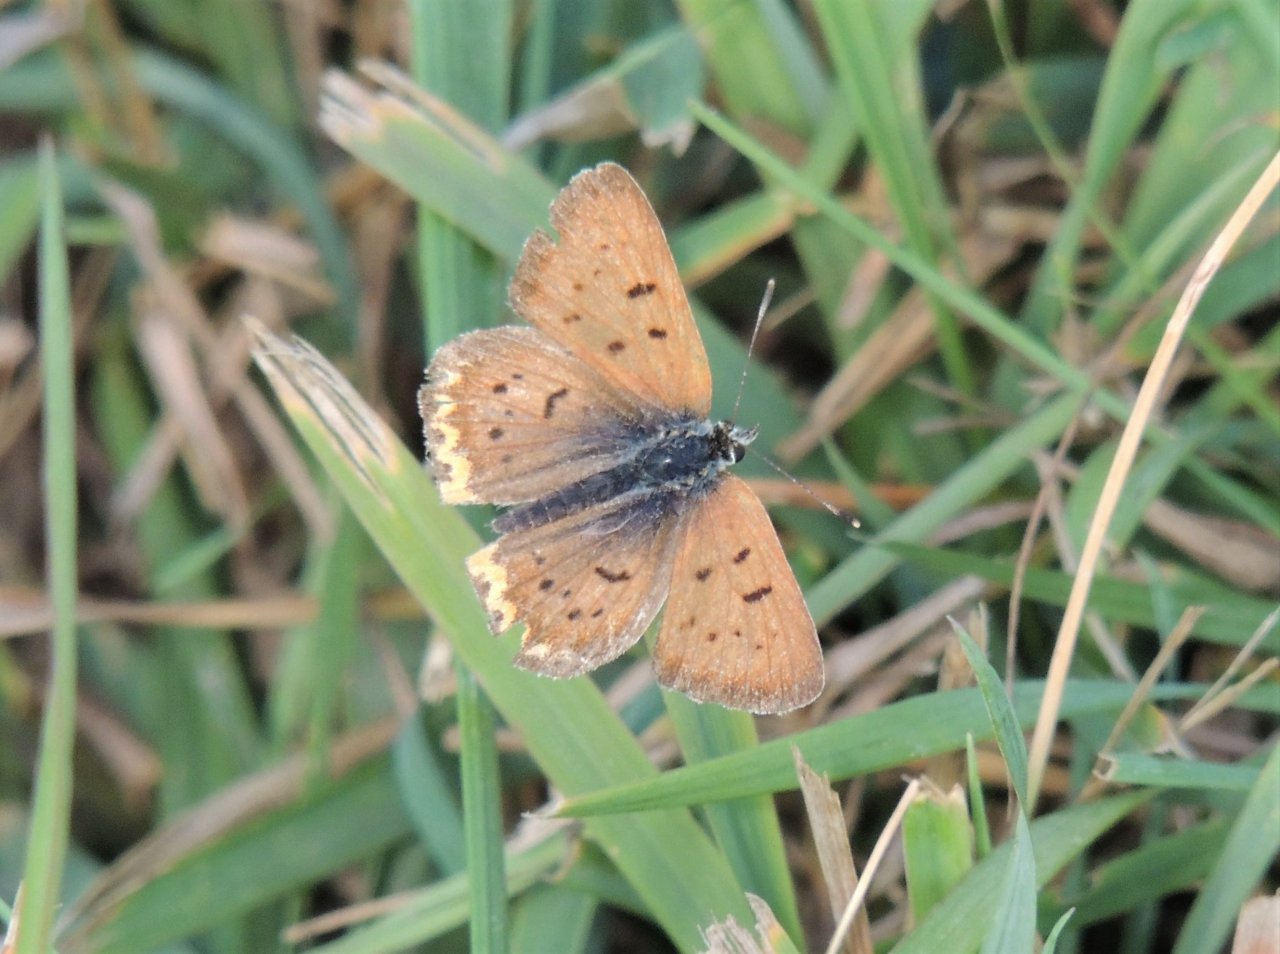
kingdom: Animalia
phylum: Arthropoda
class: Insecta
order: Lepidoptera
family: Sesiidae
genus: Sesia
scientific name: Sesia Lycaena helloides
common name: Purplish Copper
